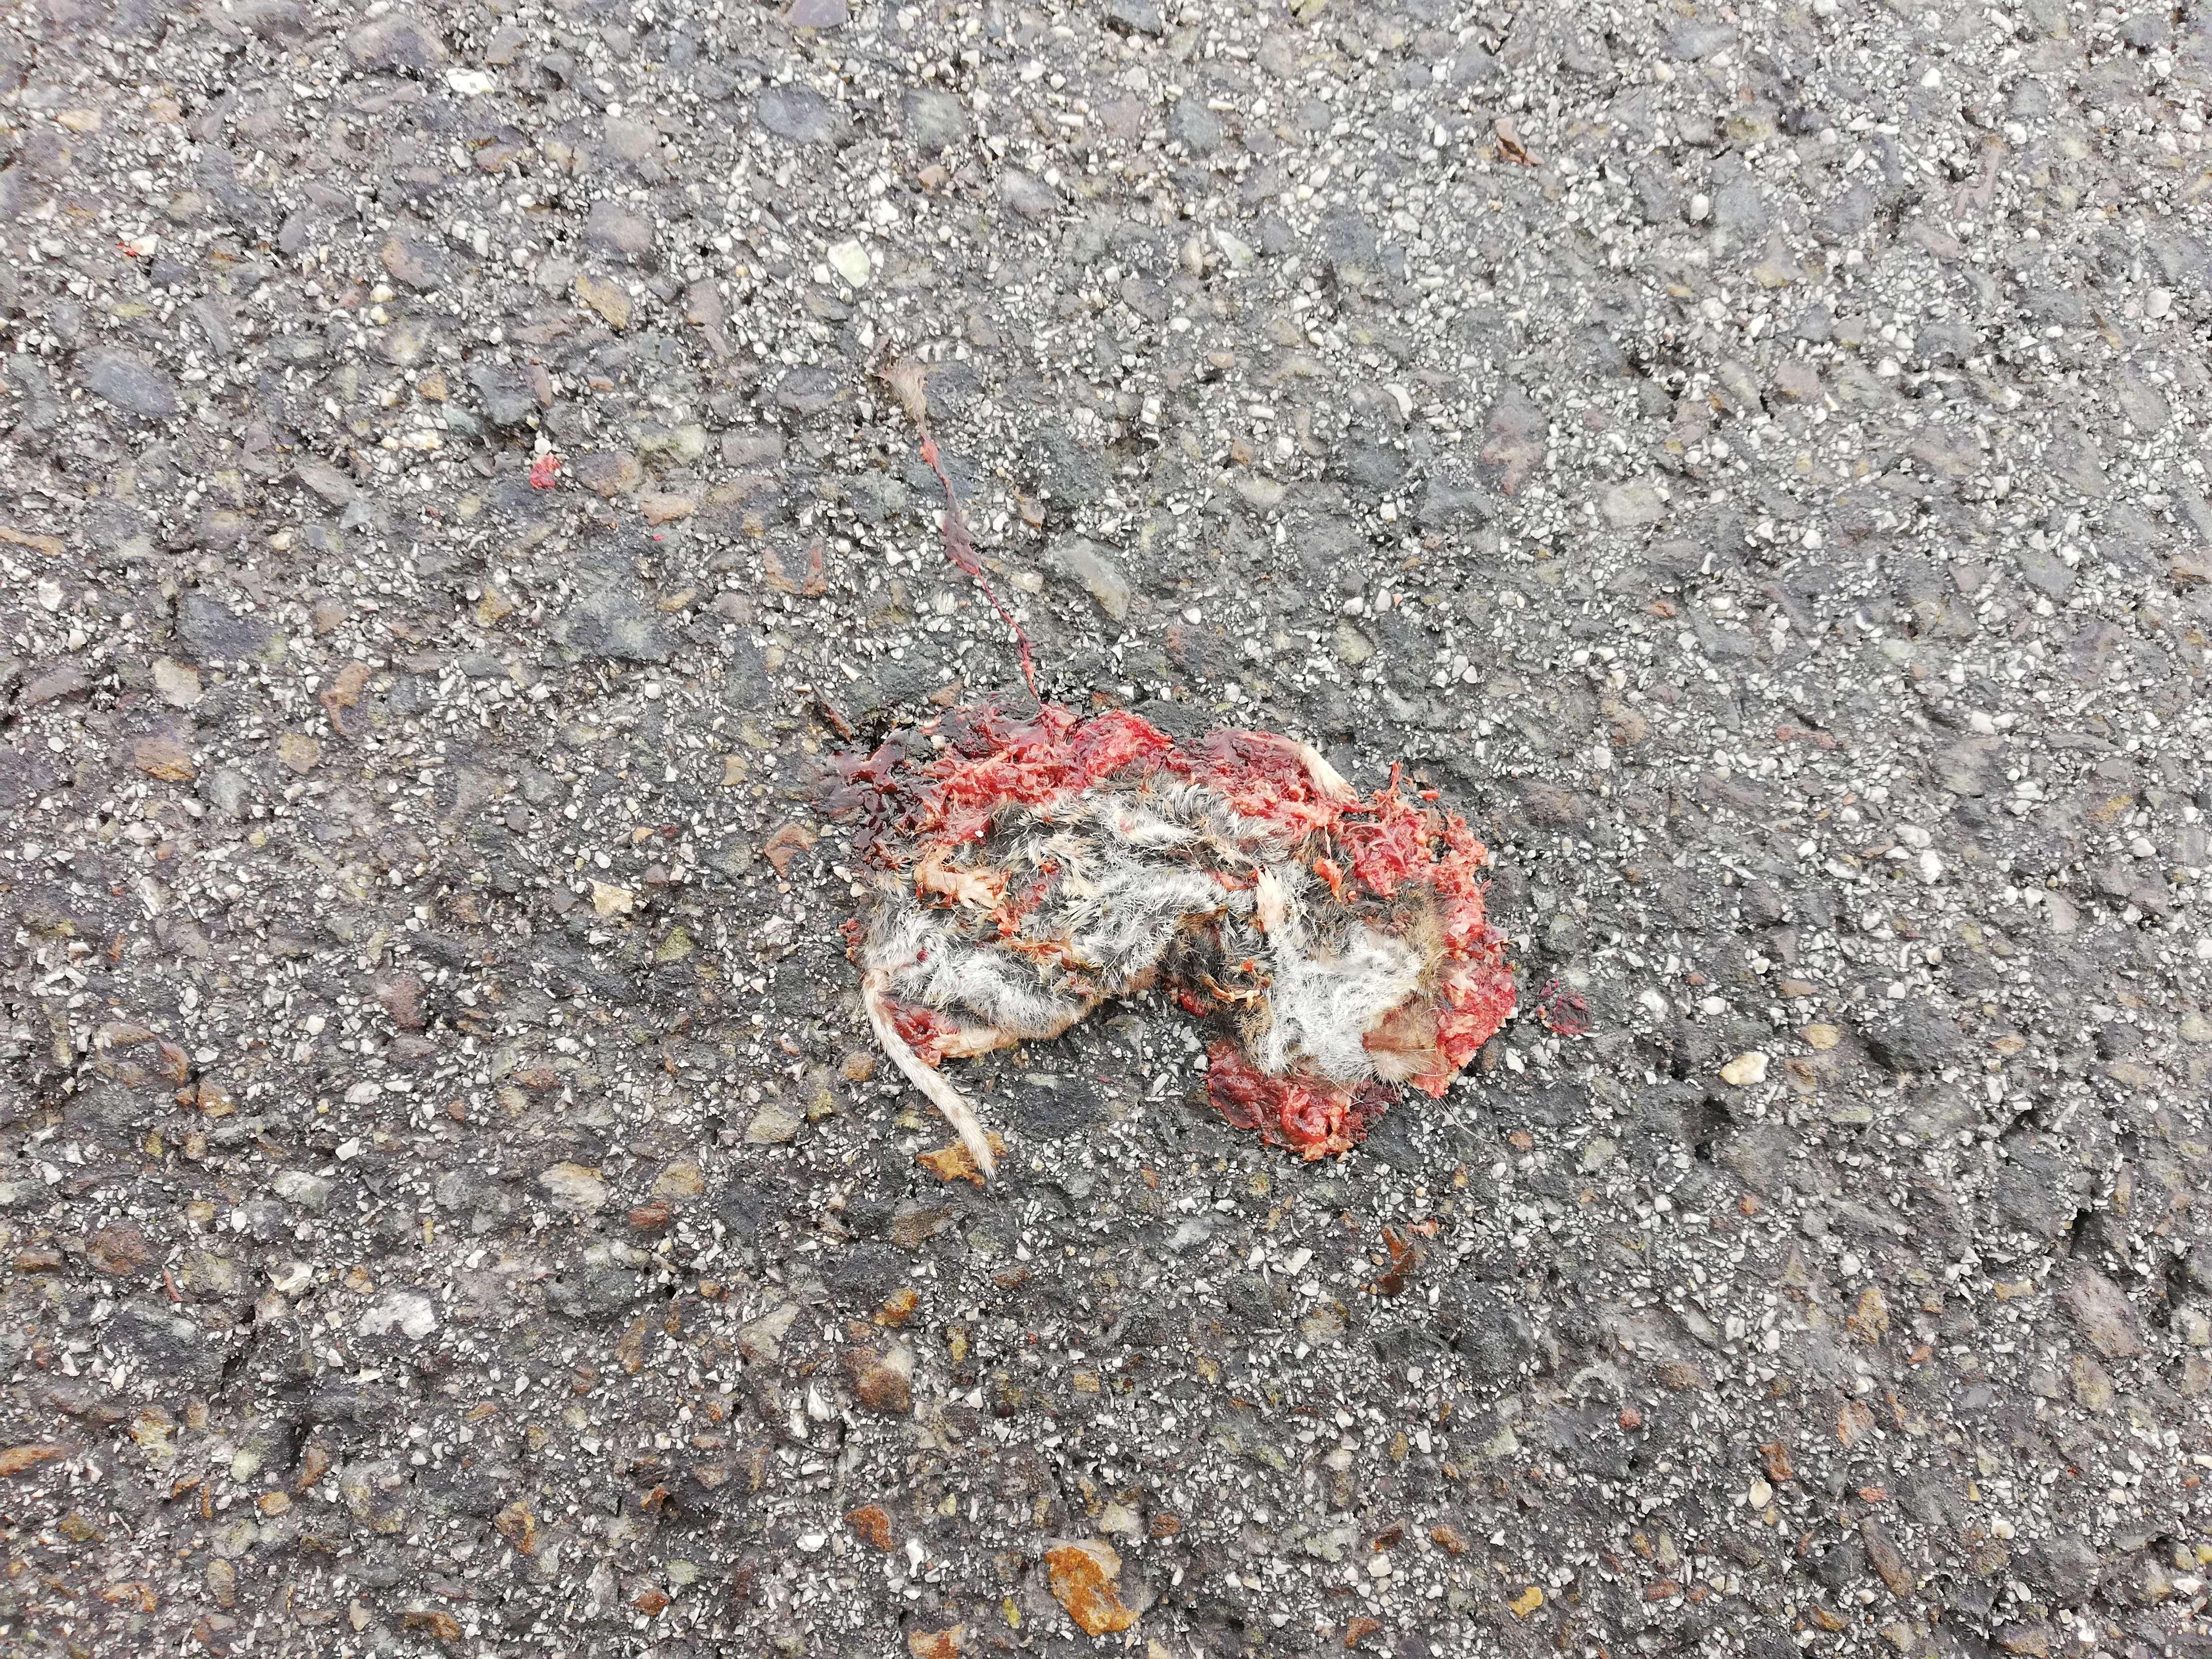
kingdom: Animalia
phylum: Chordata
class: Mammalia
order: Soricomorpha
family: Soricidae
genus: Crocidura
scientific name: Crocidura
